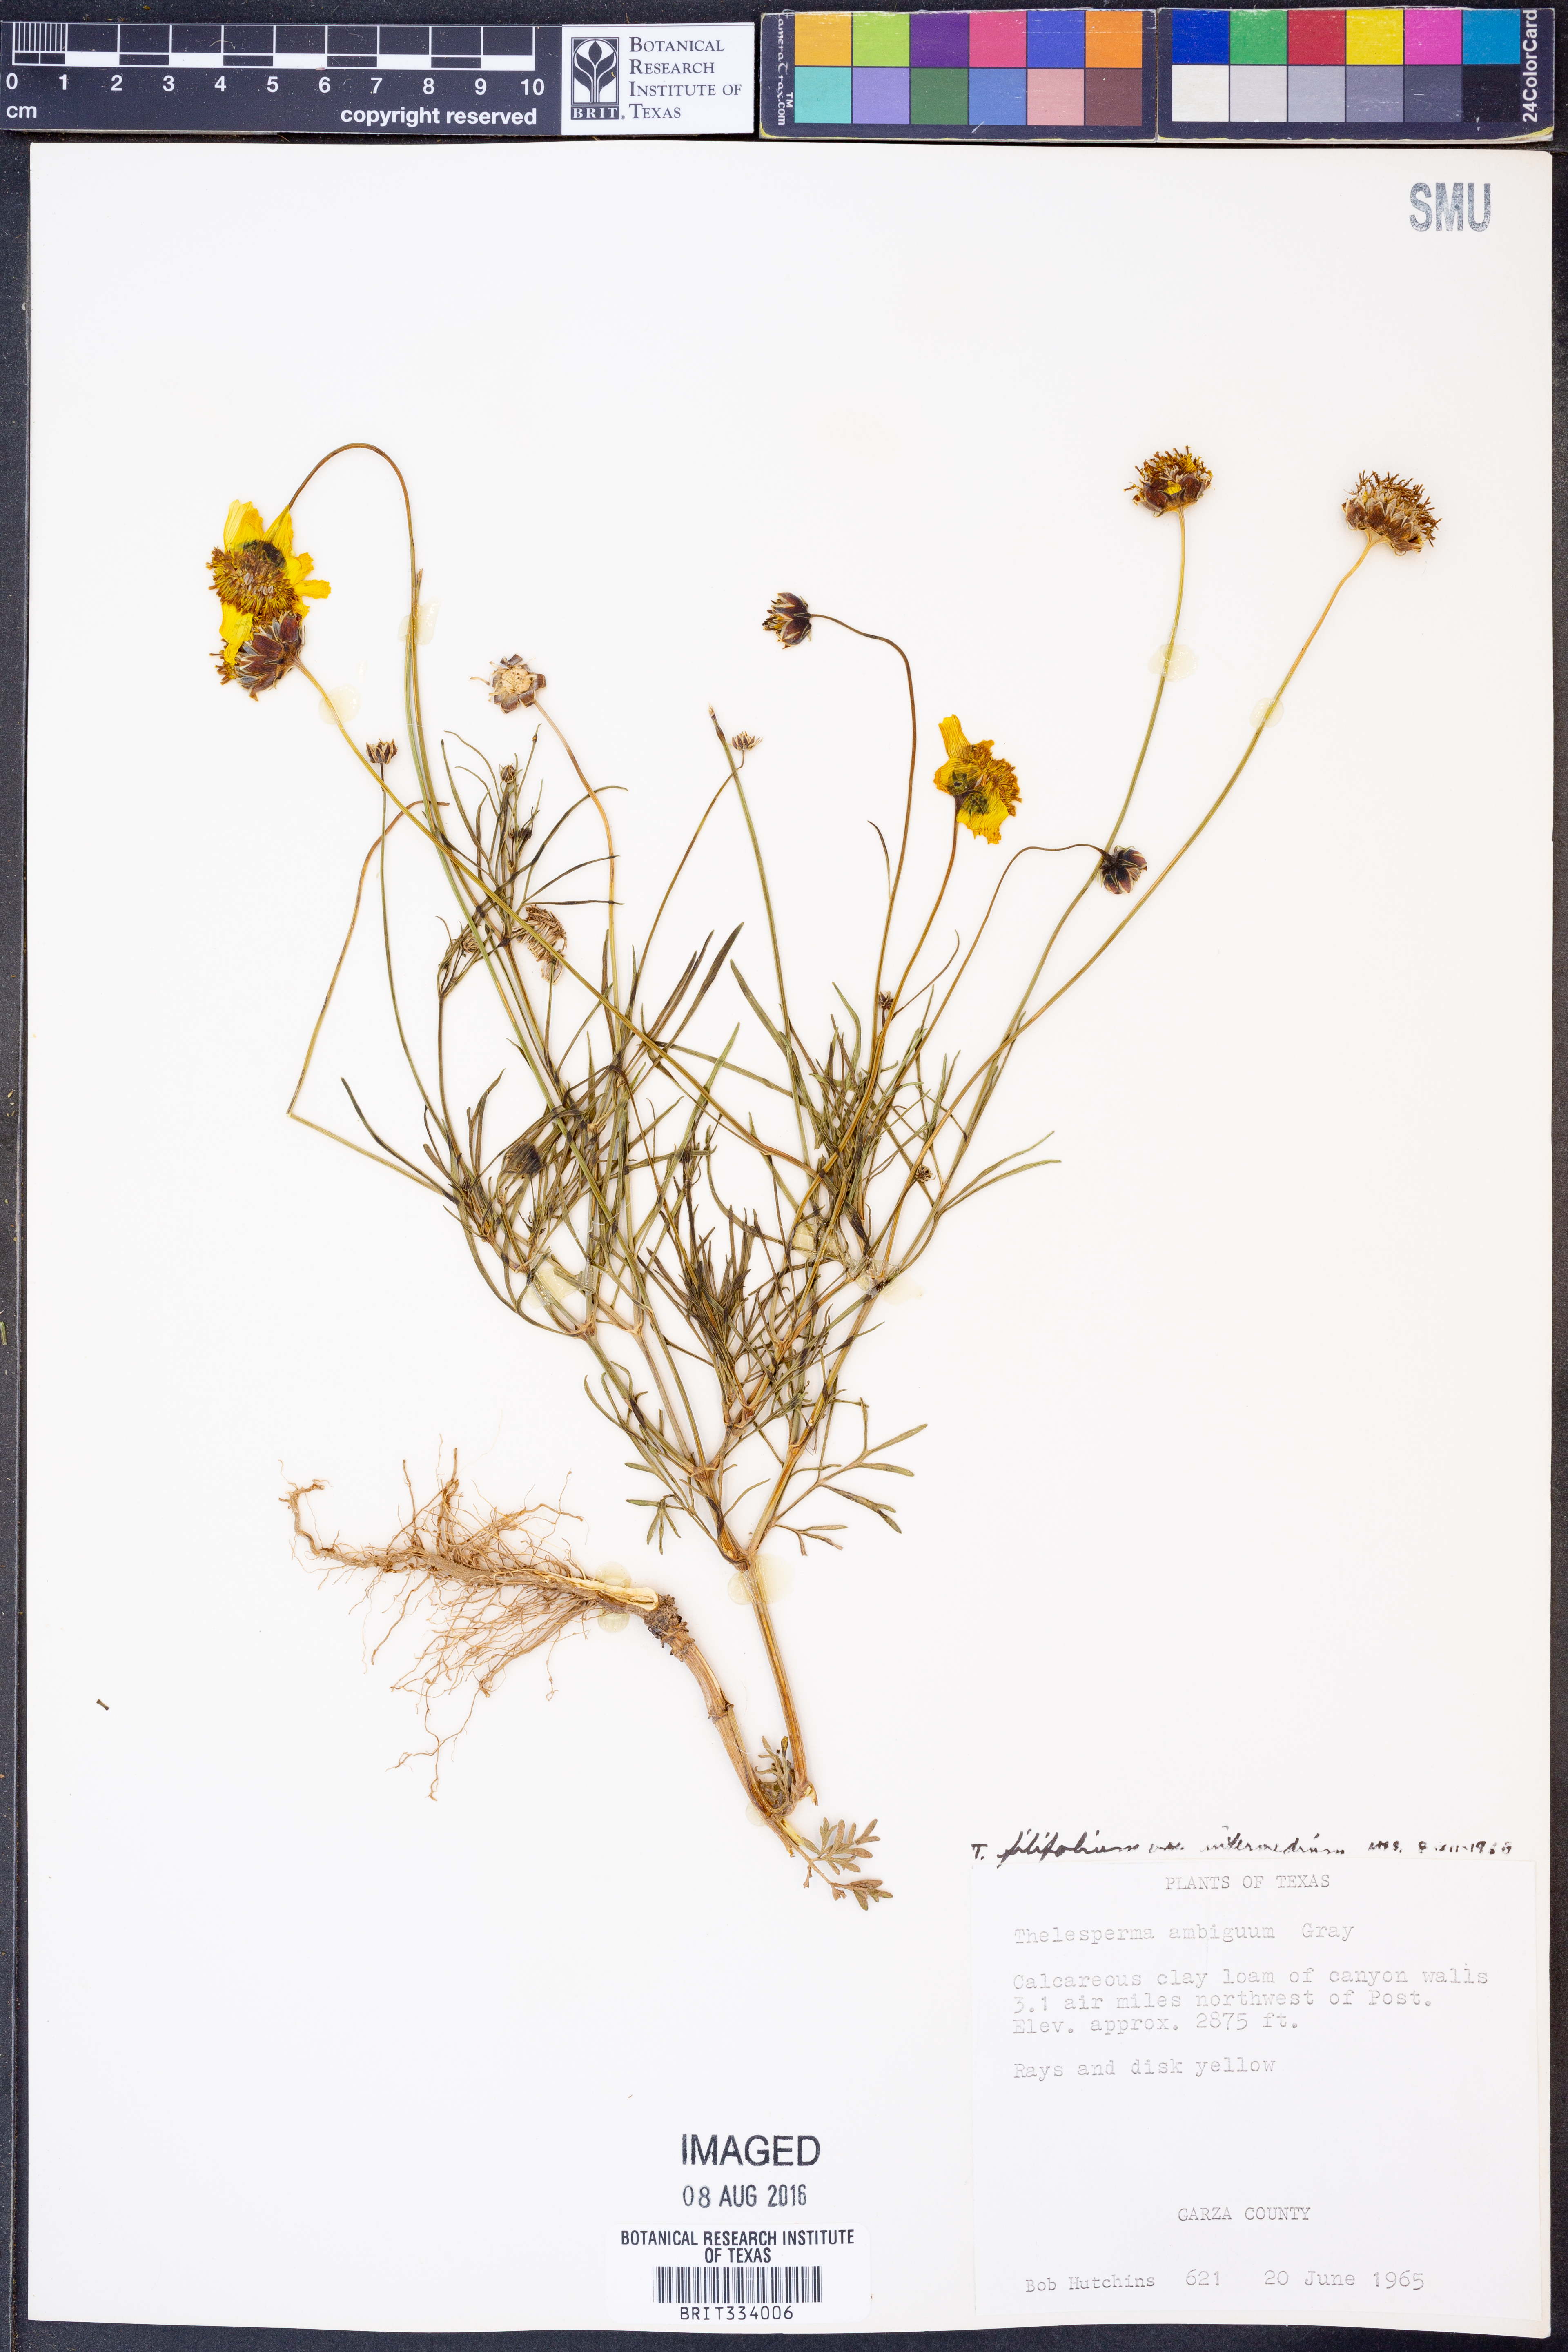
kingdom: Plantae
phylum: Tracheophyta
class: Magnoliopsida
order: Asterales
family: Asteraceae
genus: Thelesperma
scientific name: Thelesperma filifolium
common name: Stiff greenthread
